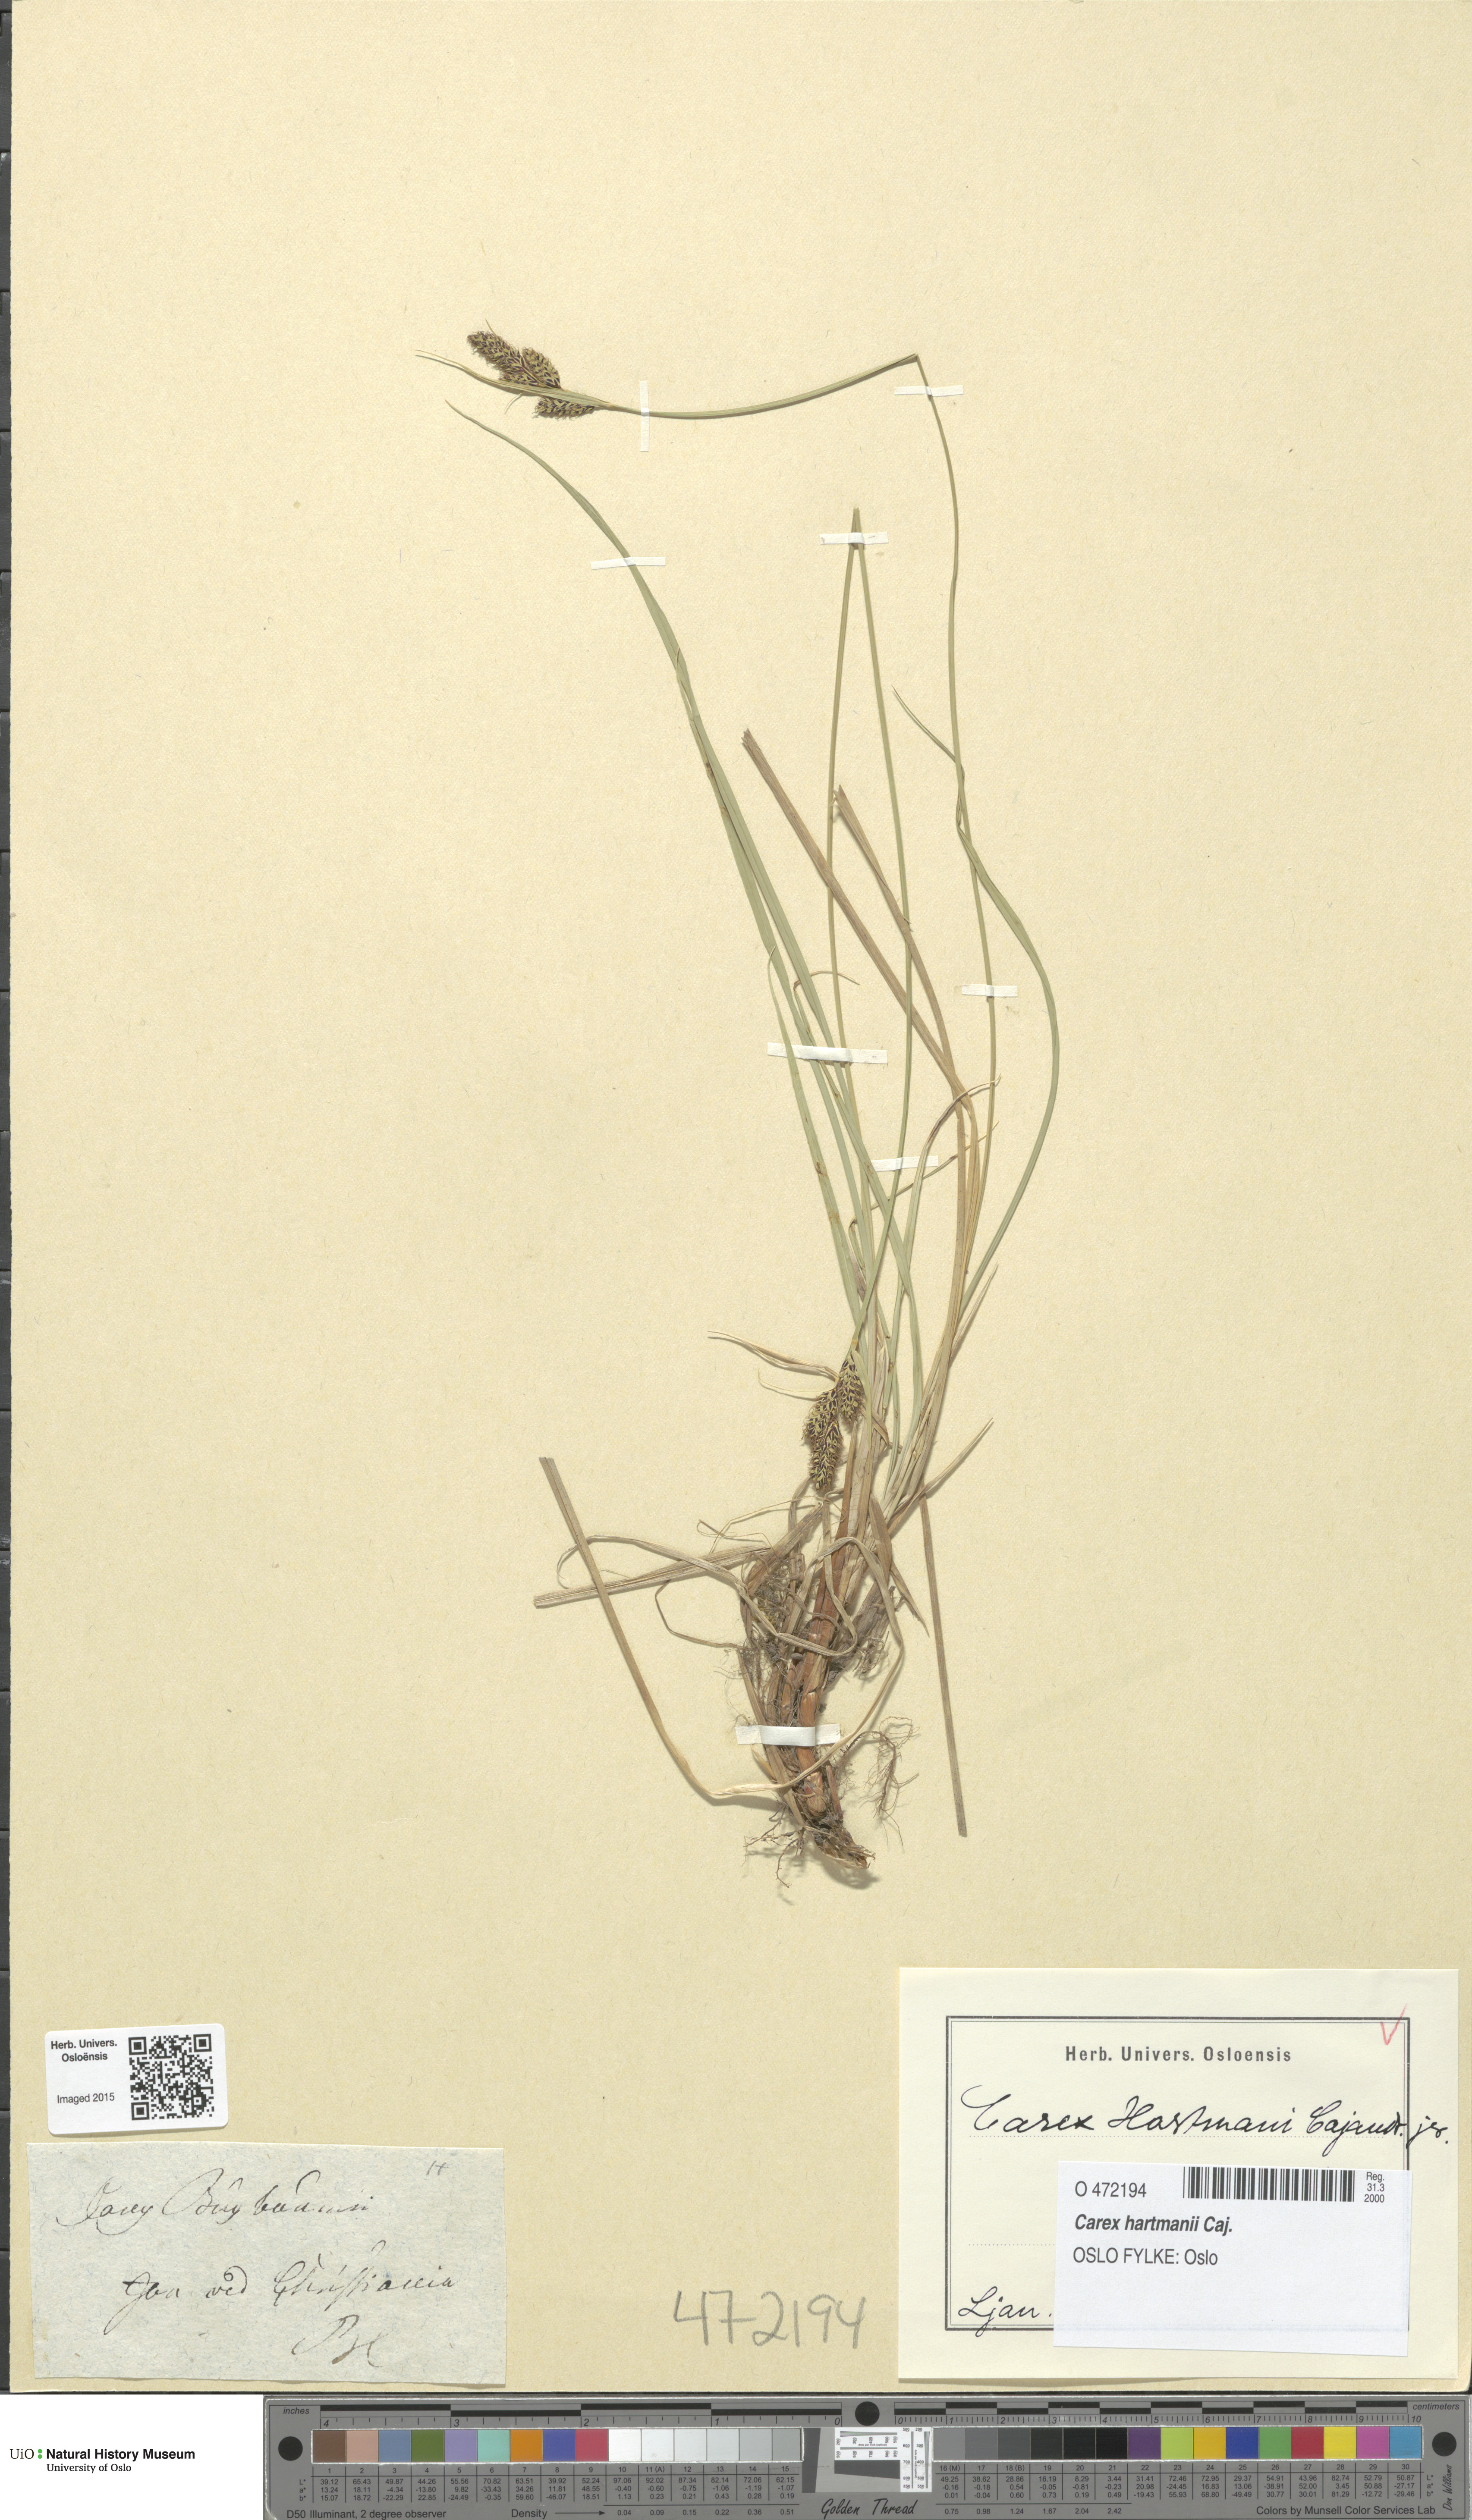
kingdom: Plantae
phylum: Tracheophyta
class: Liliopsida
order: Poales
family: Cyperaceae
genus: Carex
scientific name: Carex hartmaniorum
